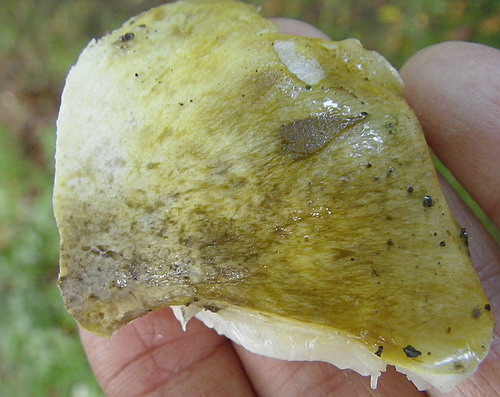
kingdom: Fungi
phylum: Basidiomycota
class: Agaricomycetes
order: Agaricales
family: Tricholomataceae
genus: Tricholoma
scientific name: Tricholoma sejunctum
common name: grøngul ridderhat
